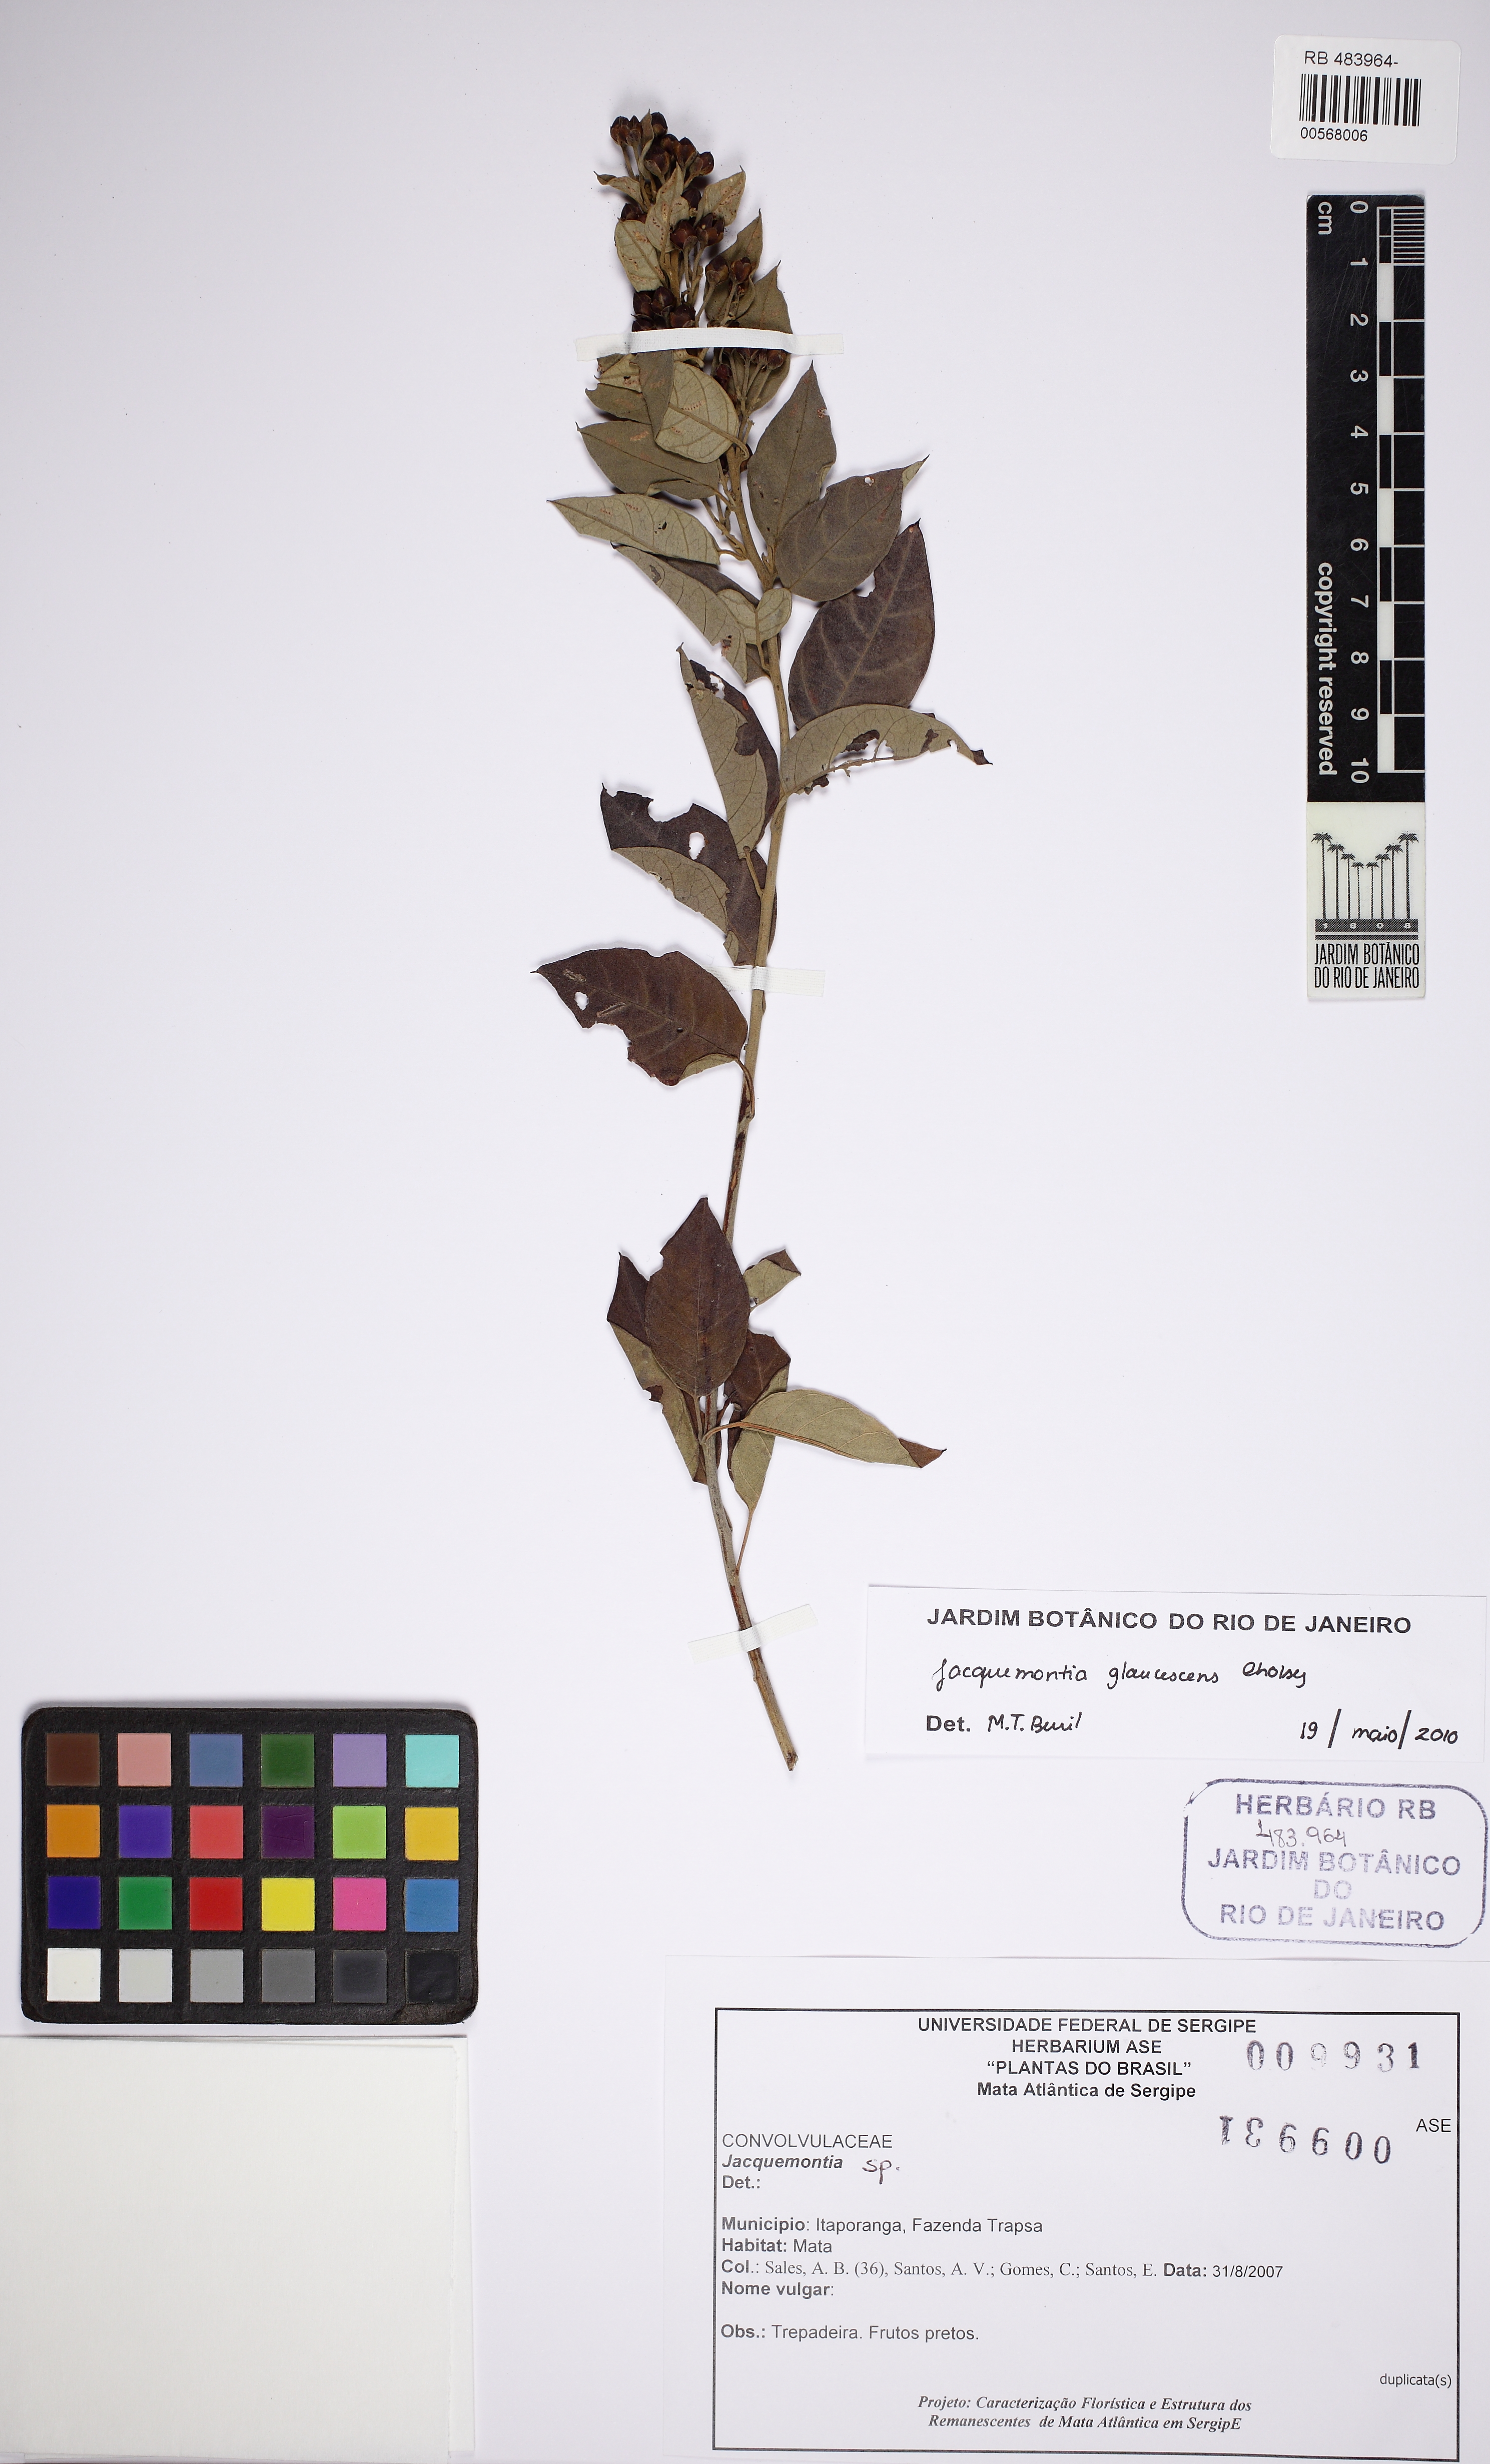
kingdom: Plantae
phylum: Tracheophyta
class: Magnoliopsida
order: Solanales
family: Convolvulaceae
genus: Jacquemontia
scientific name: Jacquemontia glaucescens
